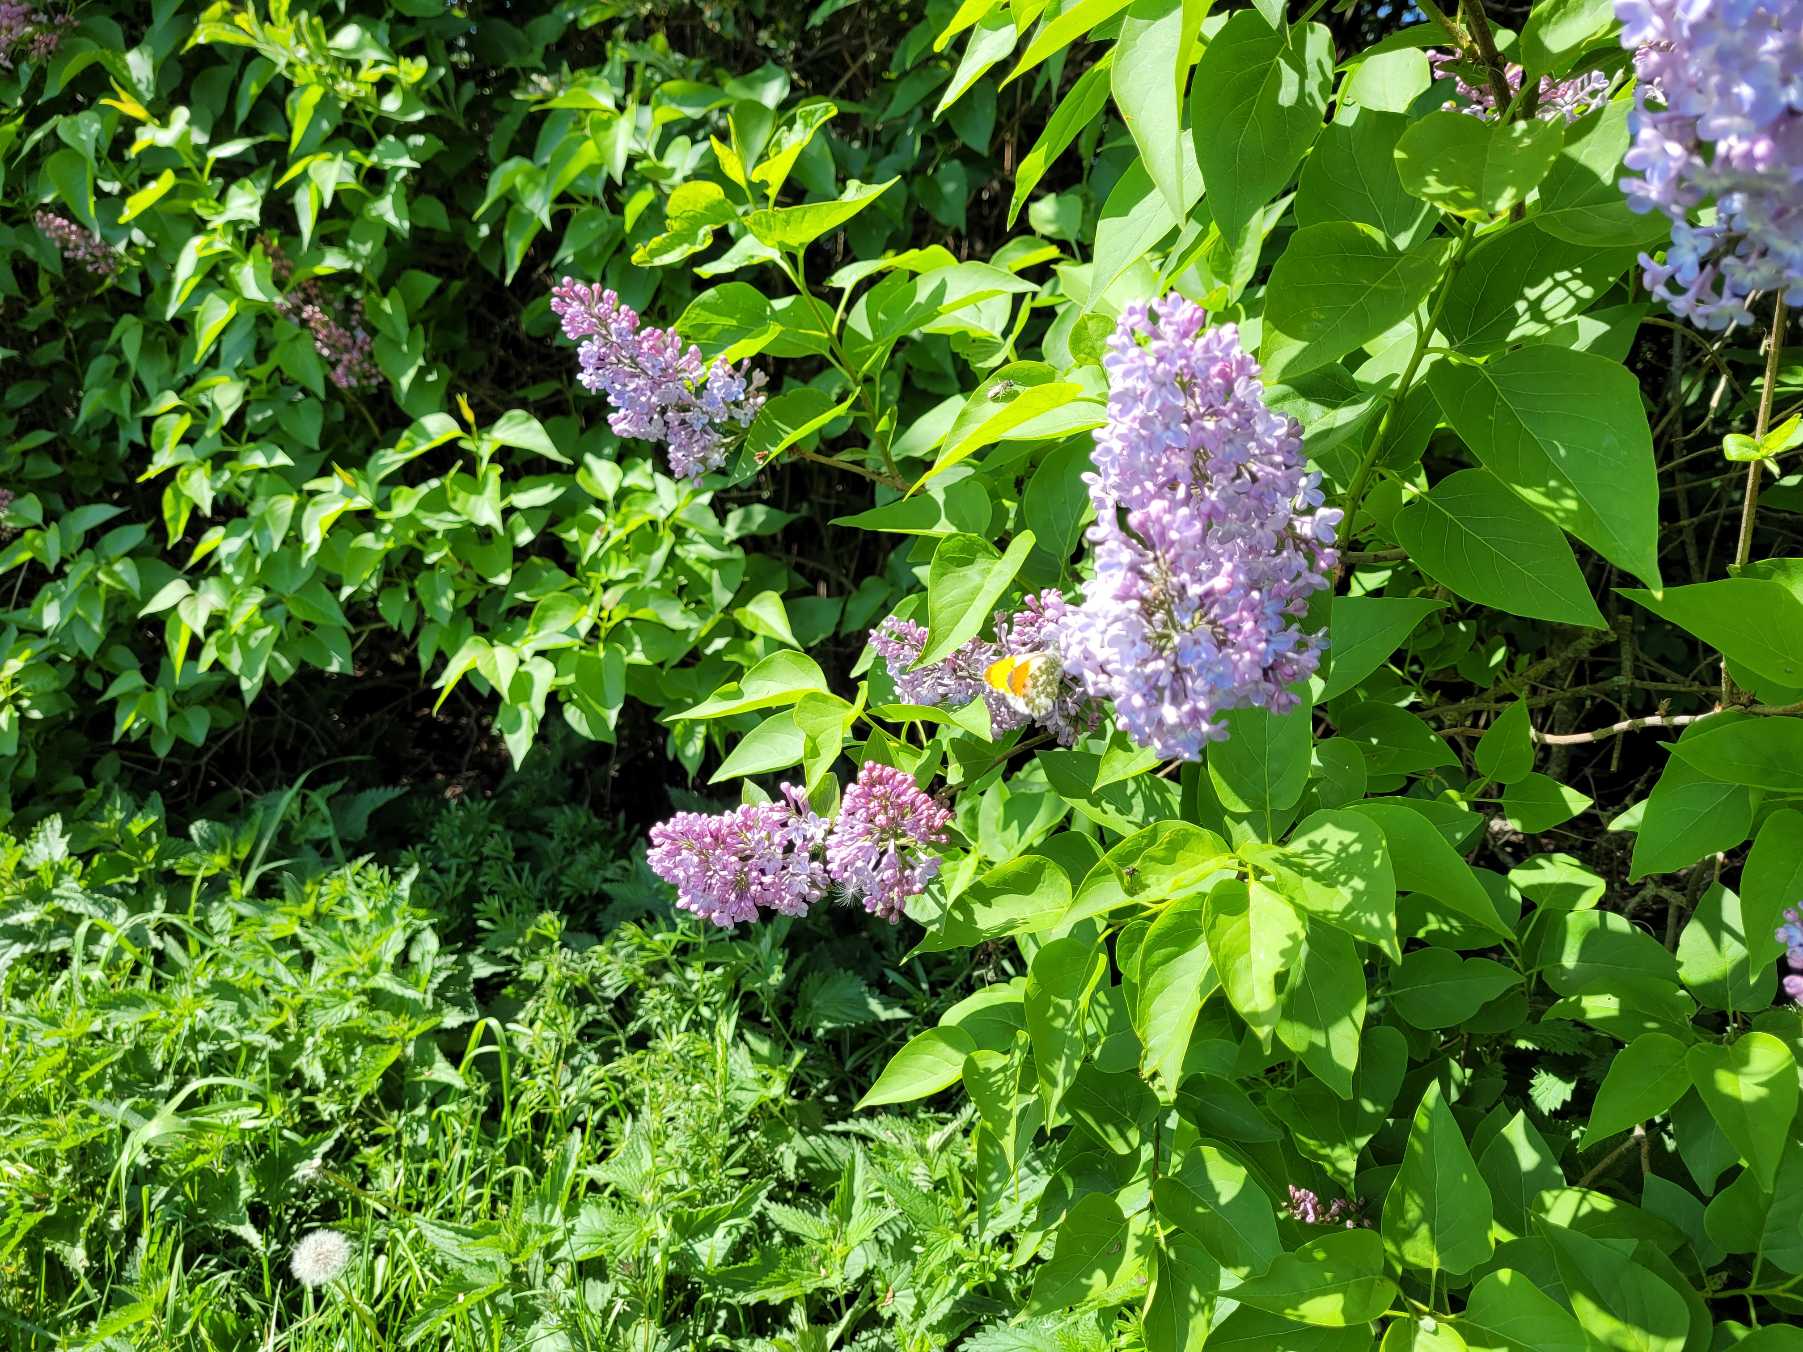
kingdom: Animalia
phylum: Arthropoda
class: Insecta
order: Lepidoptera
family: Pieridae
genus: Anthocharis
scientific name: Anthocharis cardamines
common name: Aurora
